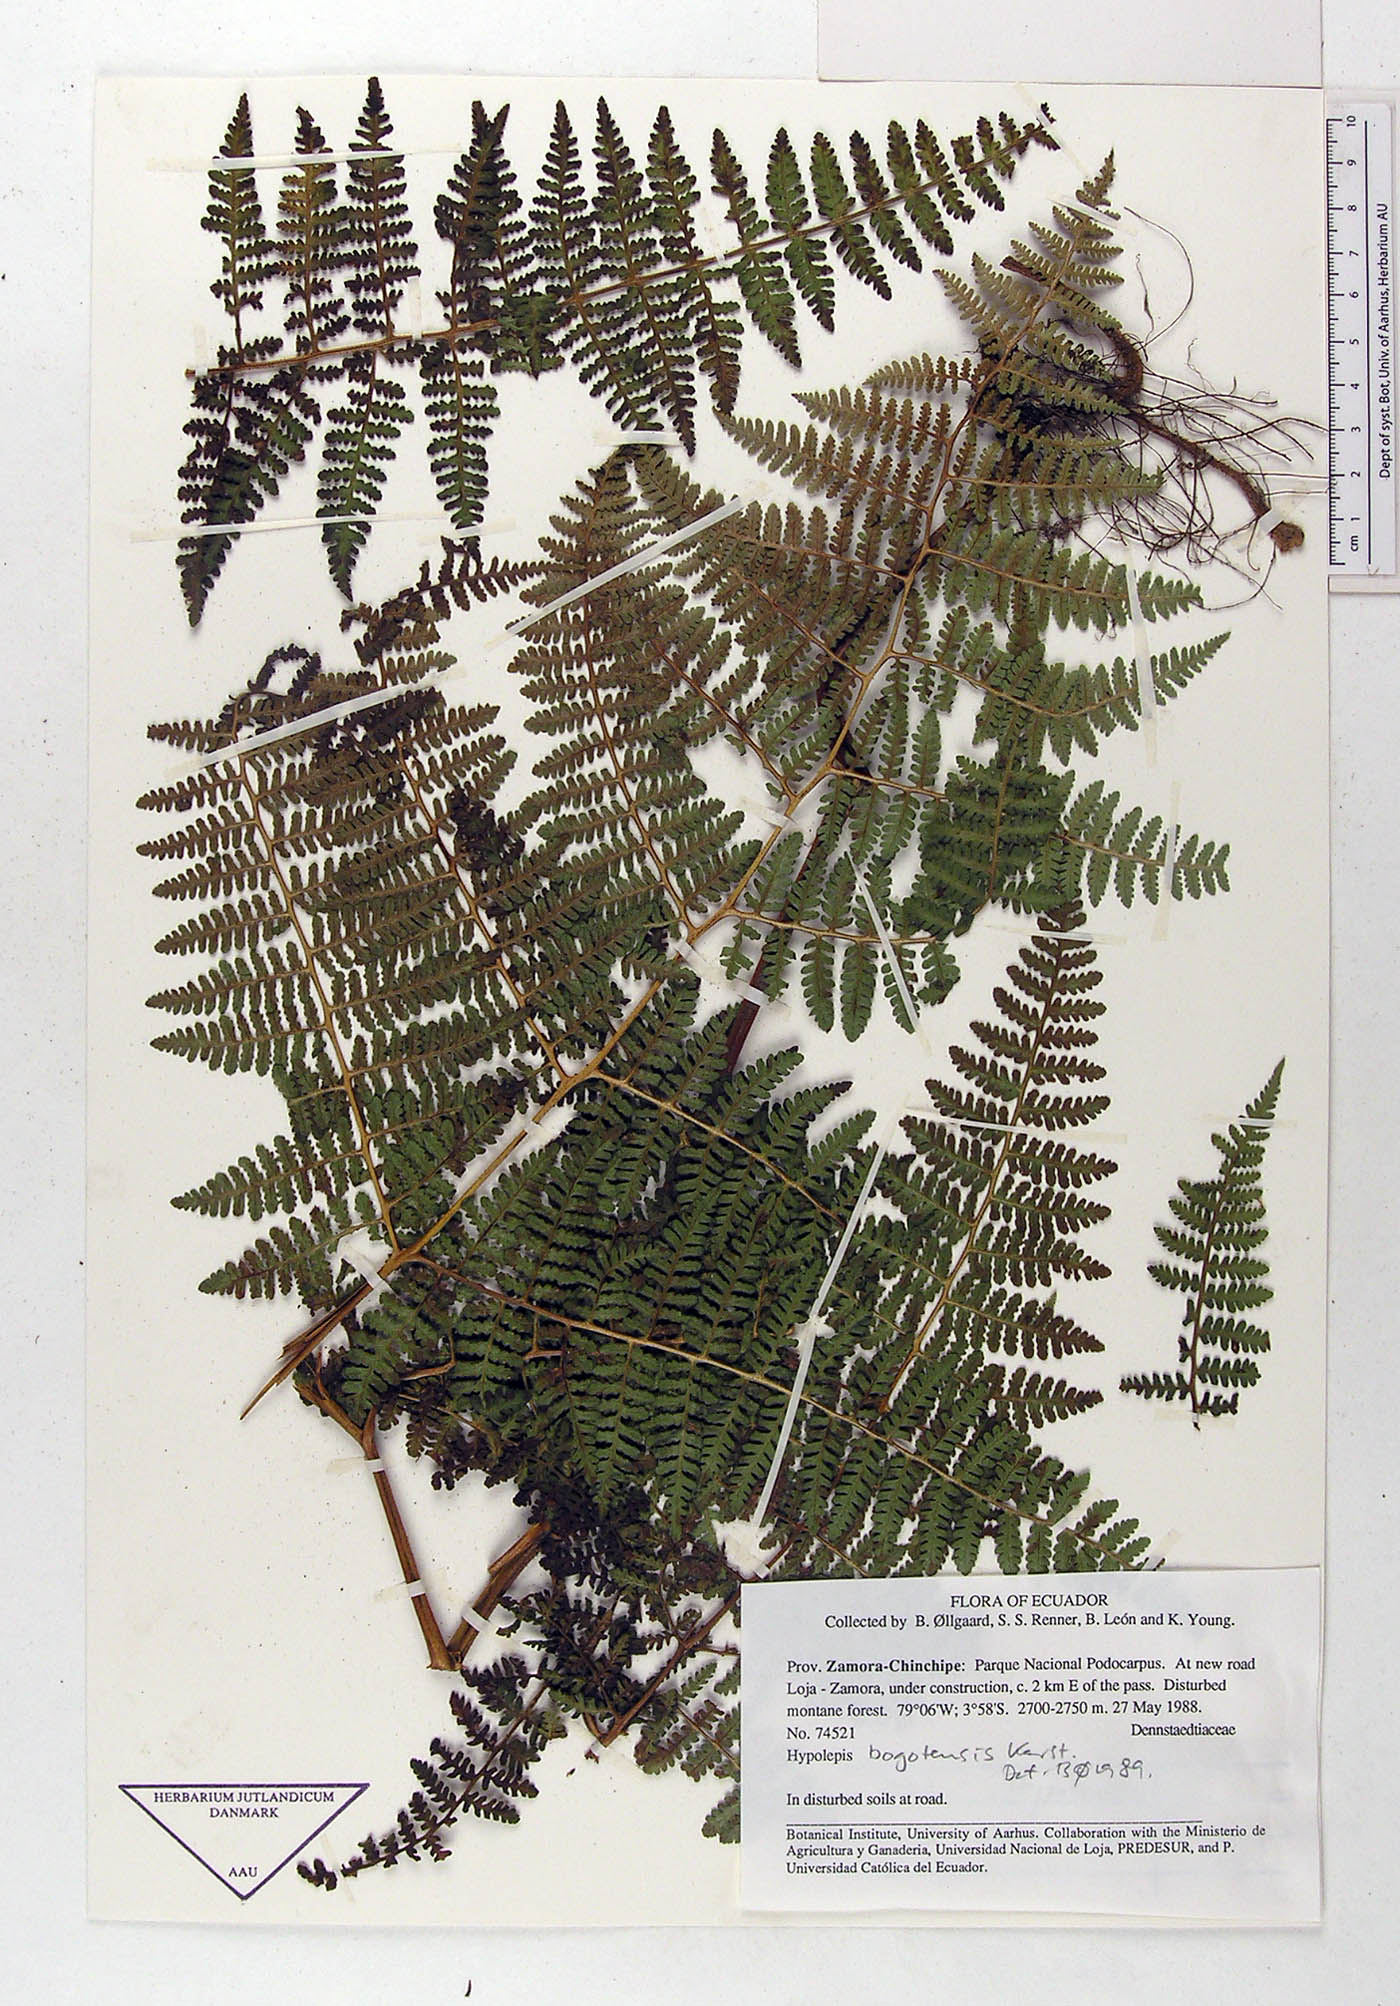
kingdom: Plantae
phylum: Tracheophyta
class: Polypodiopsida
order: Polypodiales
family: Dennstaedtiaceae
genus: Hypolepis
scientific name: Hypolepis bogotensis
